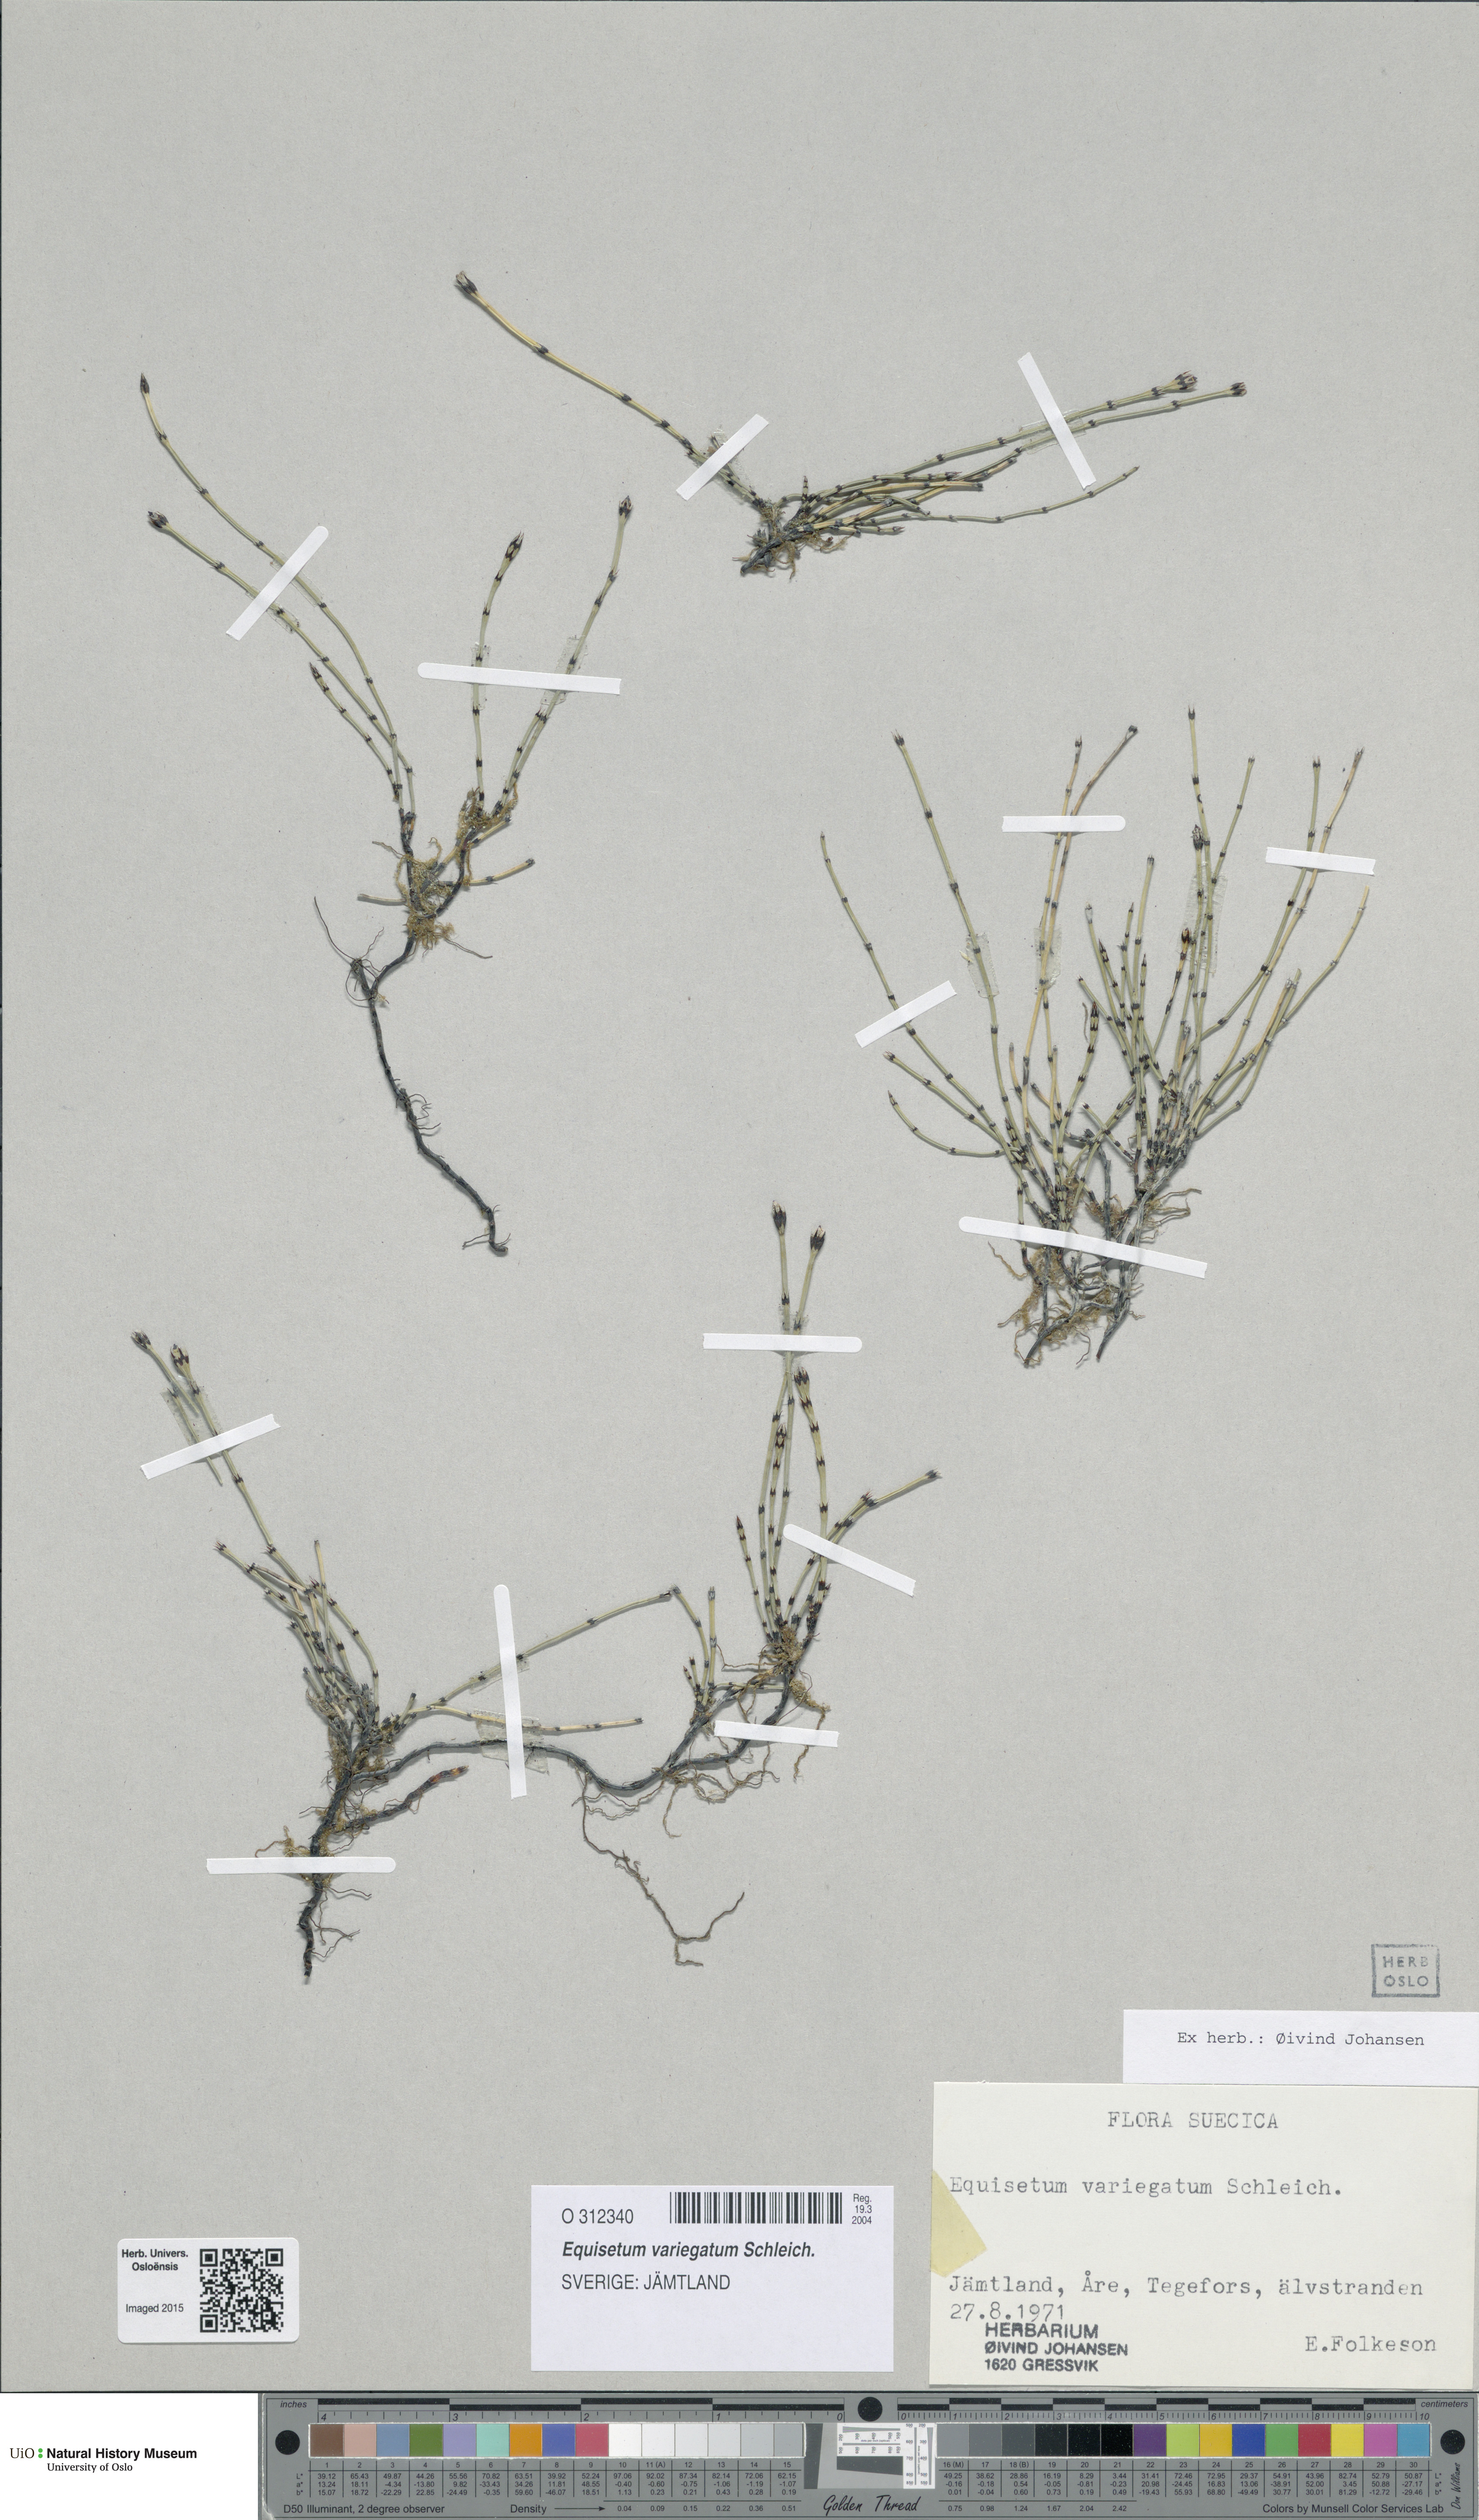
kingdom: Plantae
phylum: Tracheophyta
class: Polypodiopsida
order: Equisetales
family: Equisetaceae
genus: Equisetum
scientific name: Equisetum variegatum
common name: Variegated horsetail
